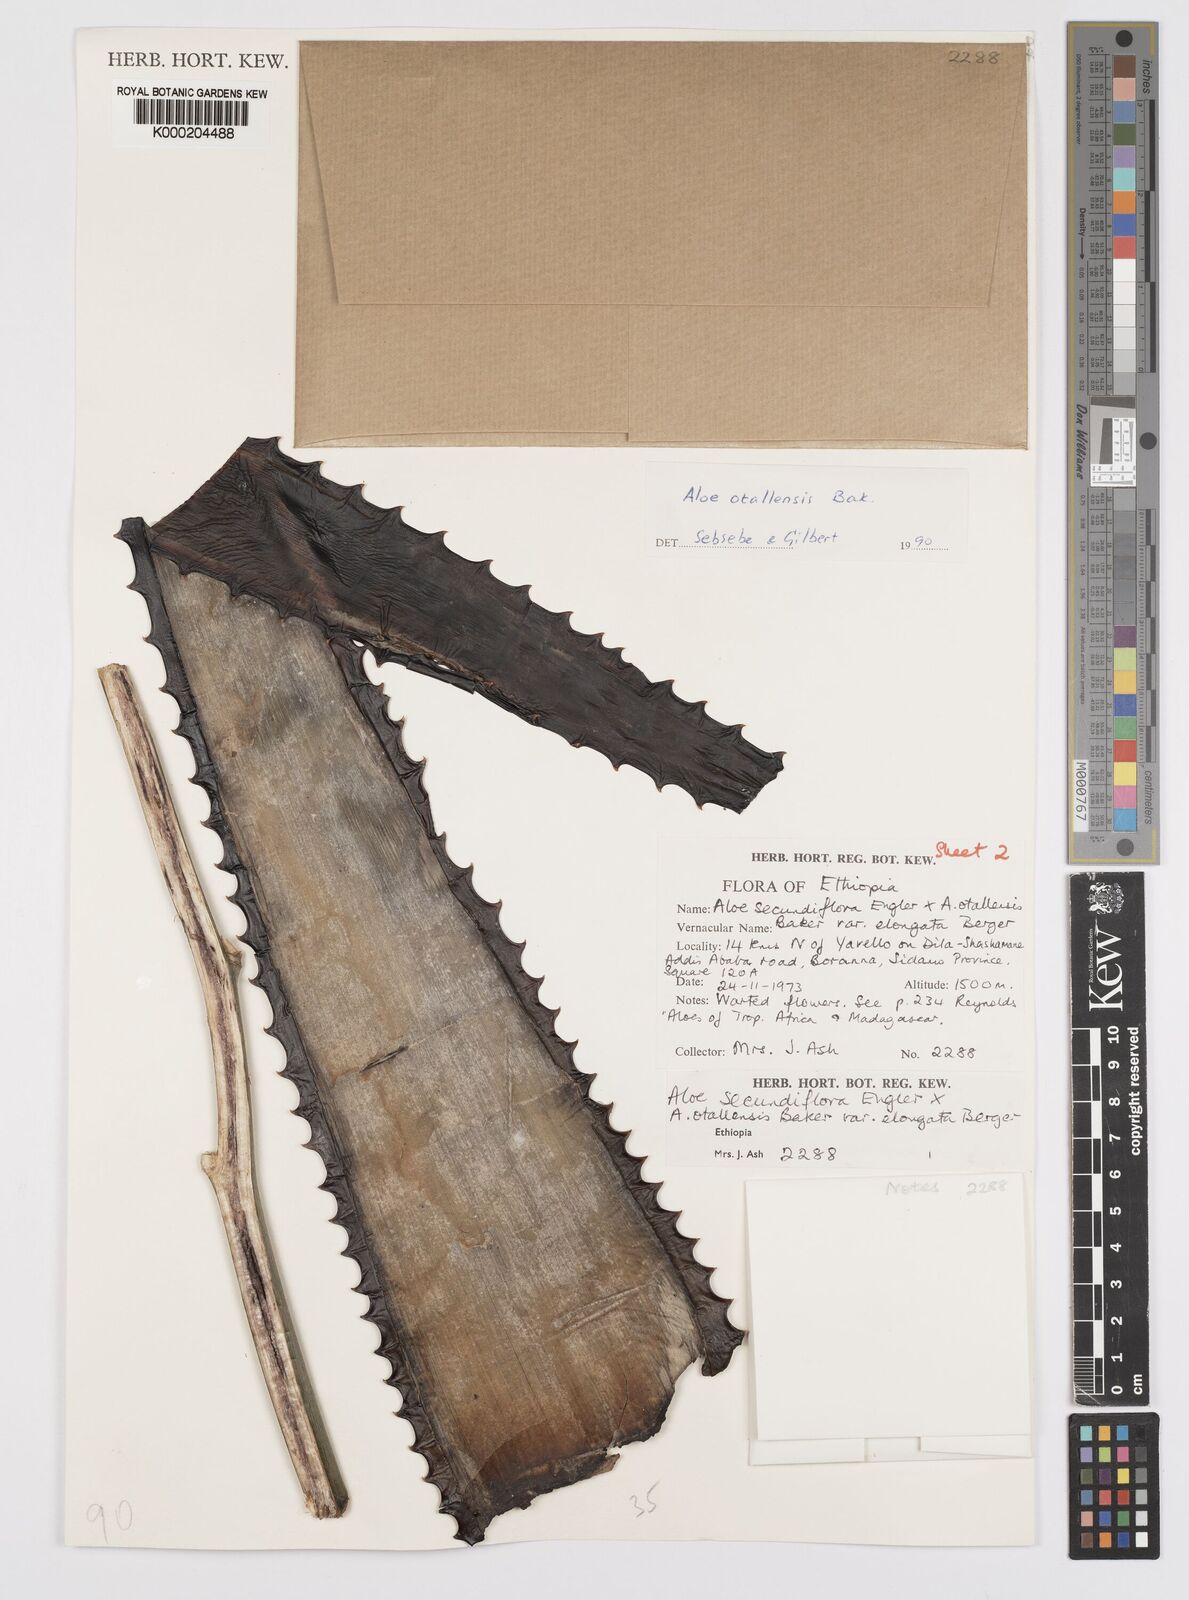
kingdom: Plantae
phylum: Tracheophyta
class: Liliopsida
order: Asparagales
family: Asphodelaceae
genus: Aloe
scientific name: Aloe otallensis
